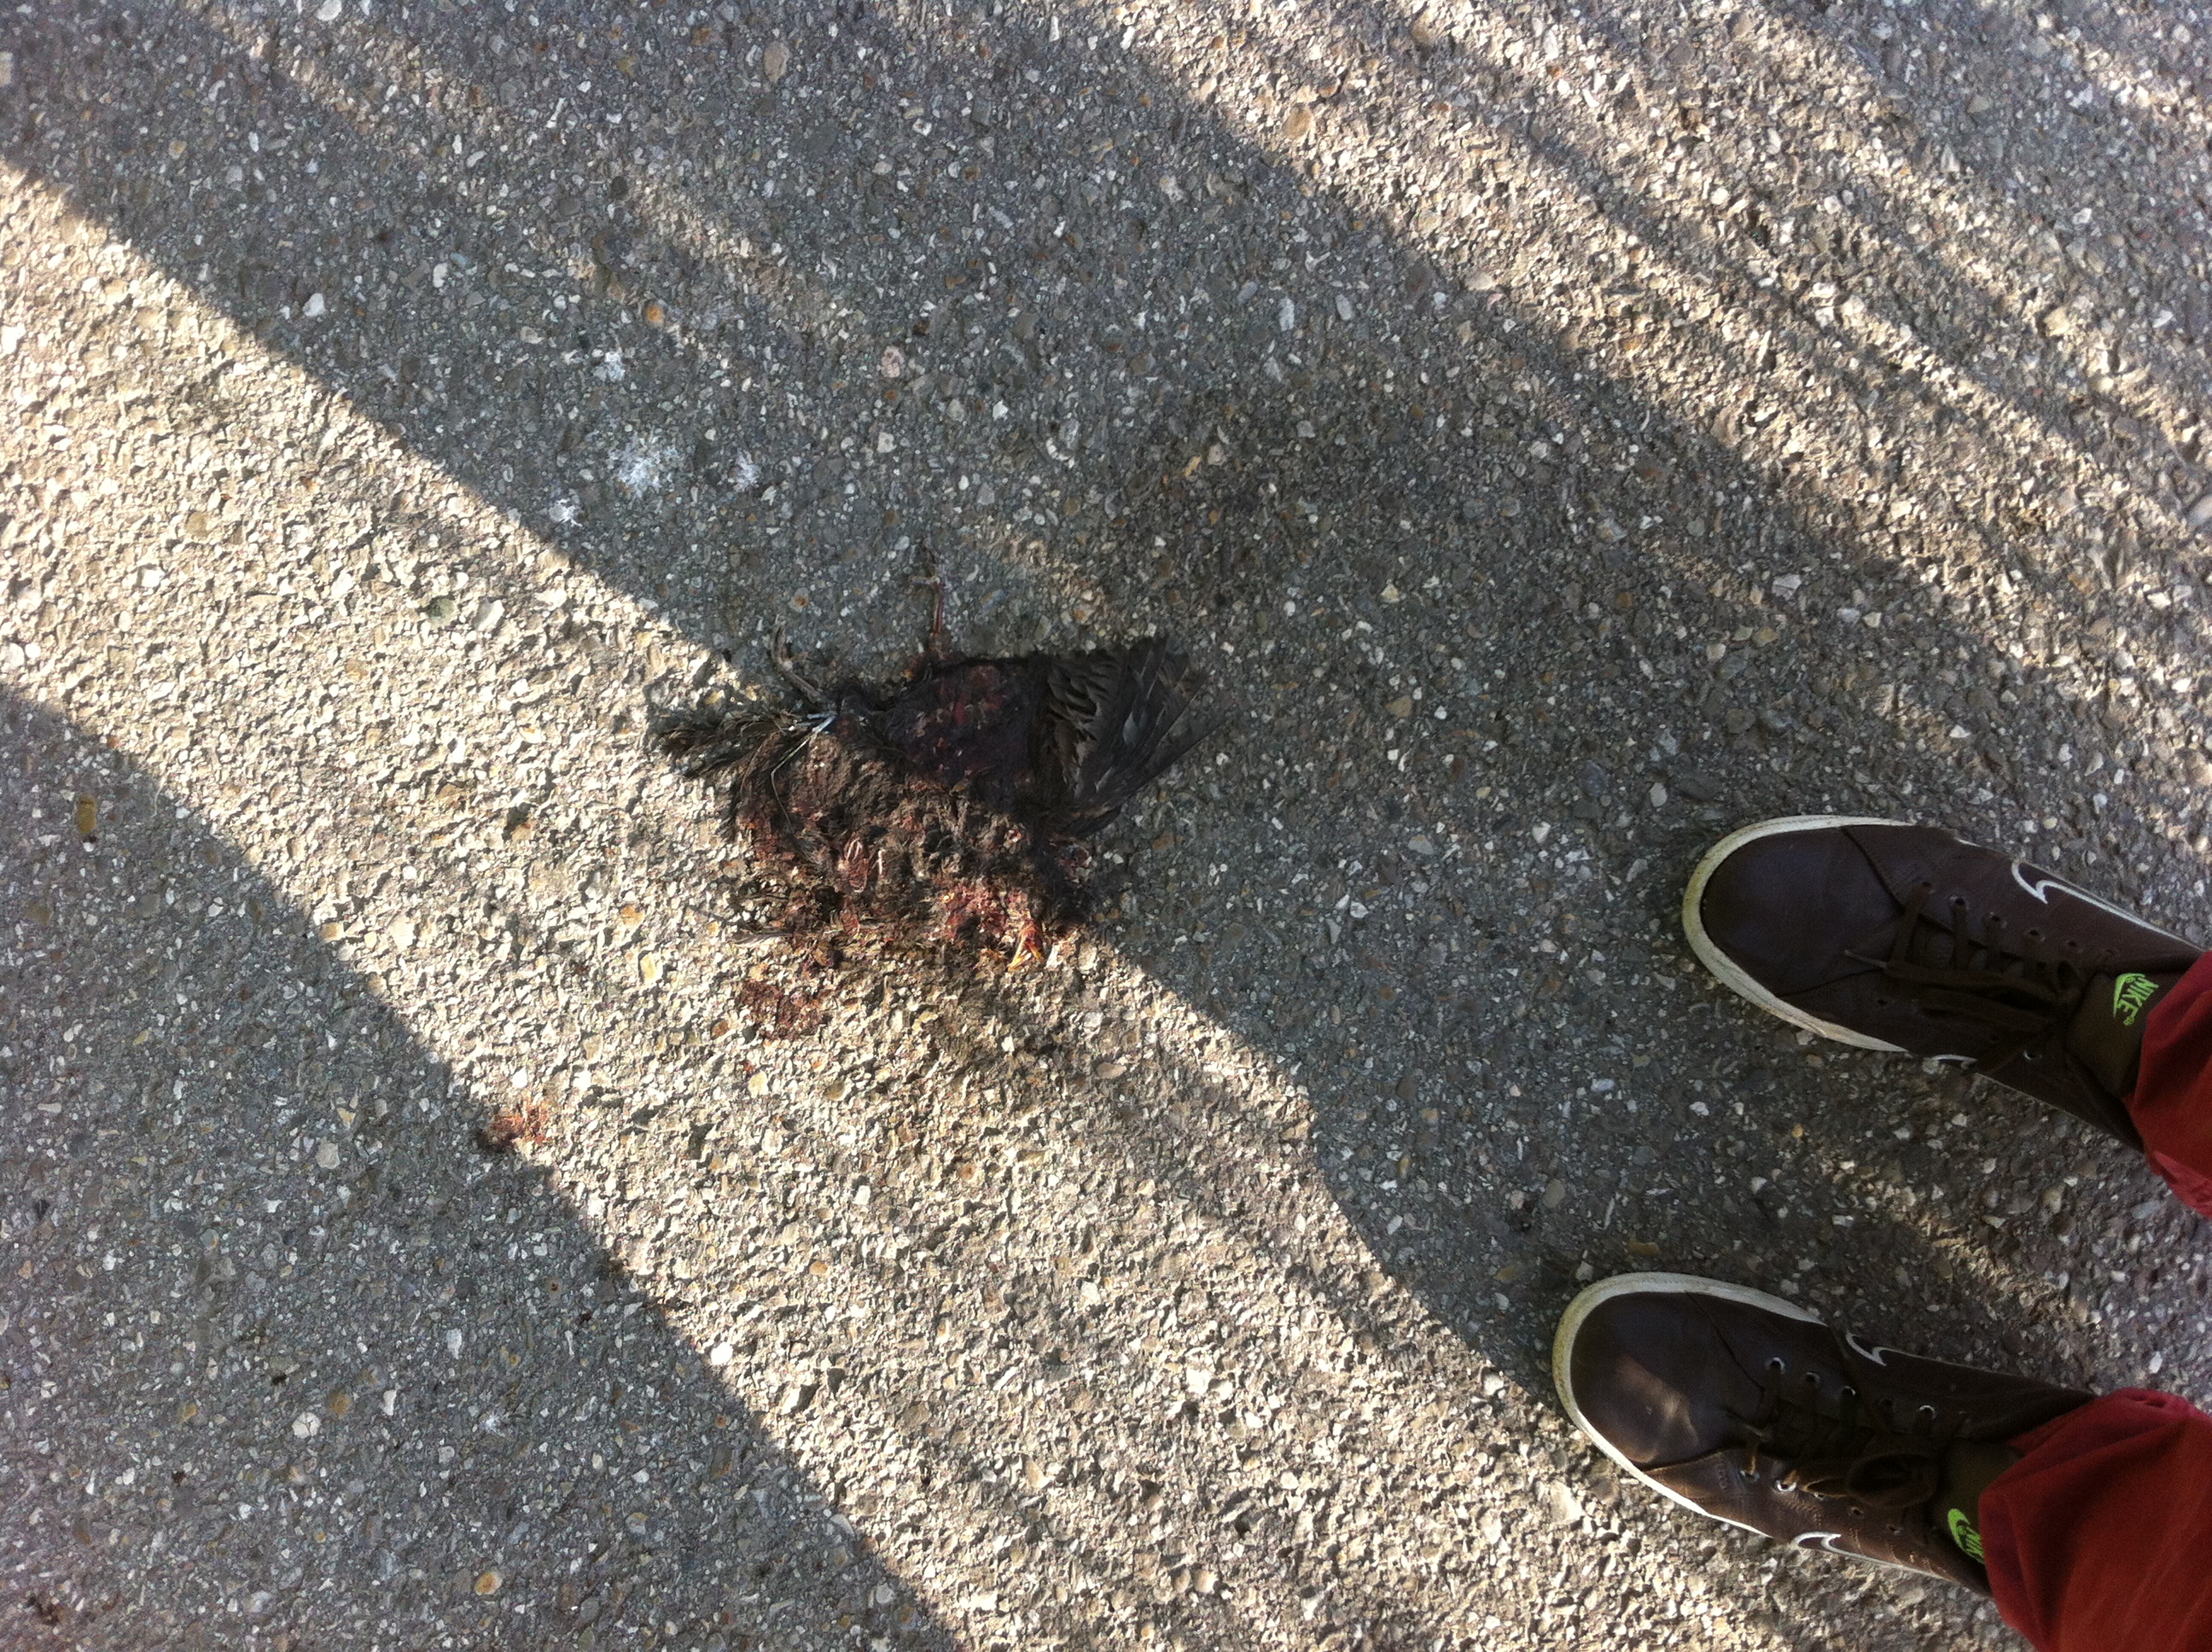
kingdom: Animalia
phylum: Chordata
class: Aves
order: Passeriformes
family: Turdidae
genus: Turdus
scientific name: Turdus merula
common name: Common blackbird
